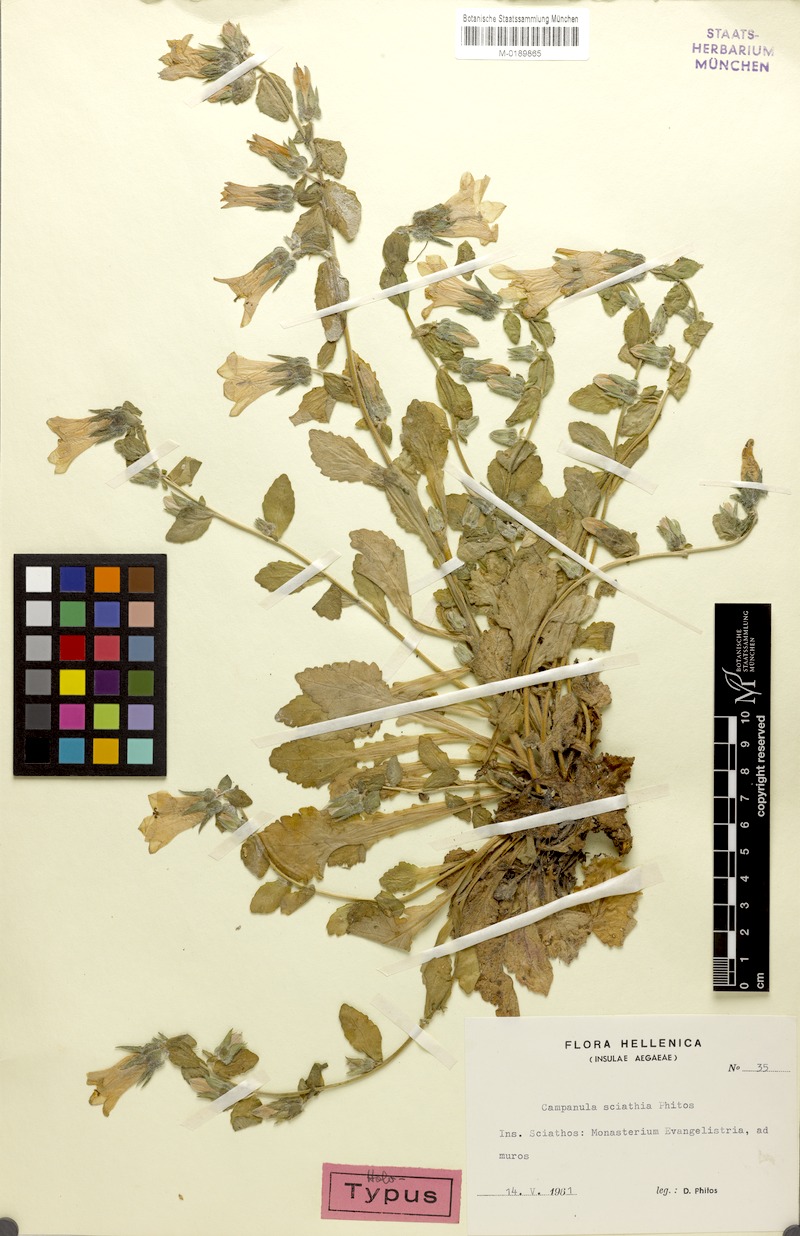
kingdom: Plantae
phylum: Tracheophyta
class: Magnoliopsida
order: Asterales
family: Campanulaceae
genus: Campanula
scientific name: Campanula sciathia
